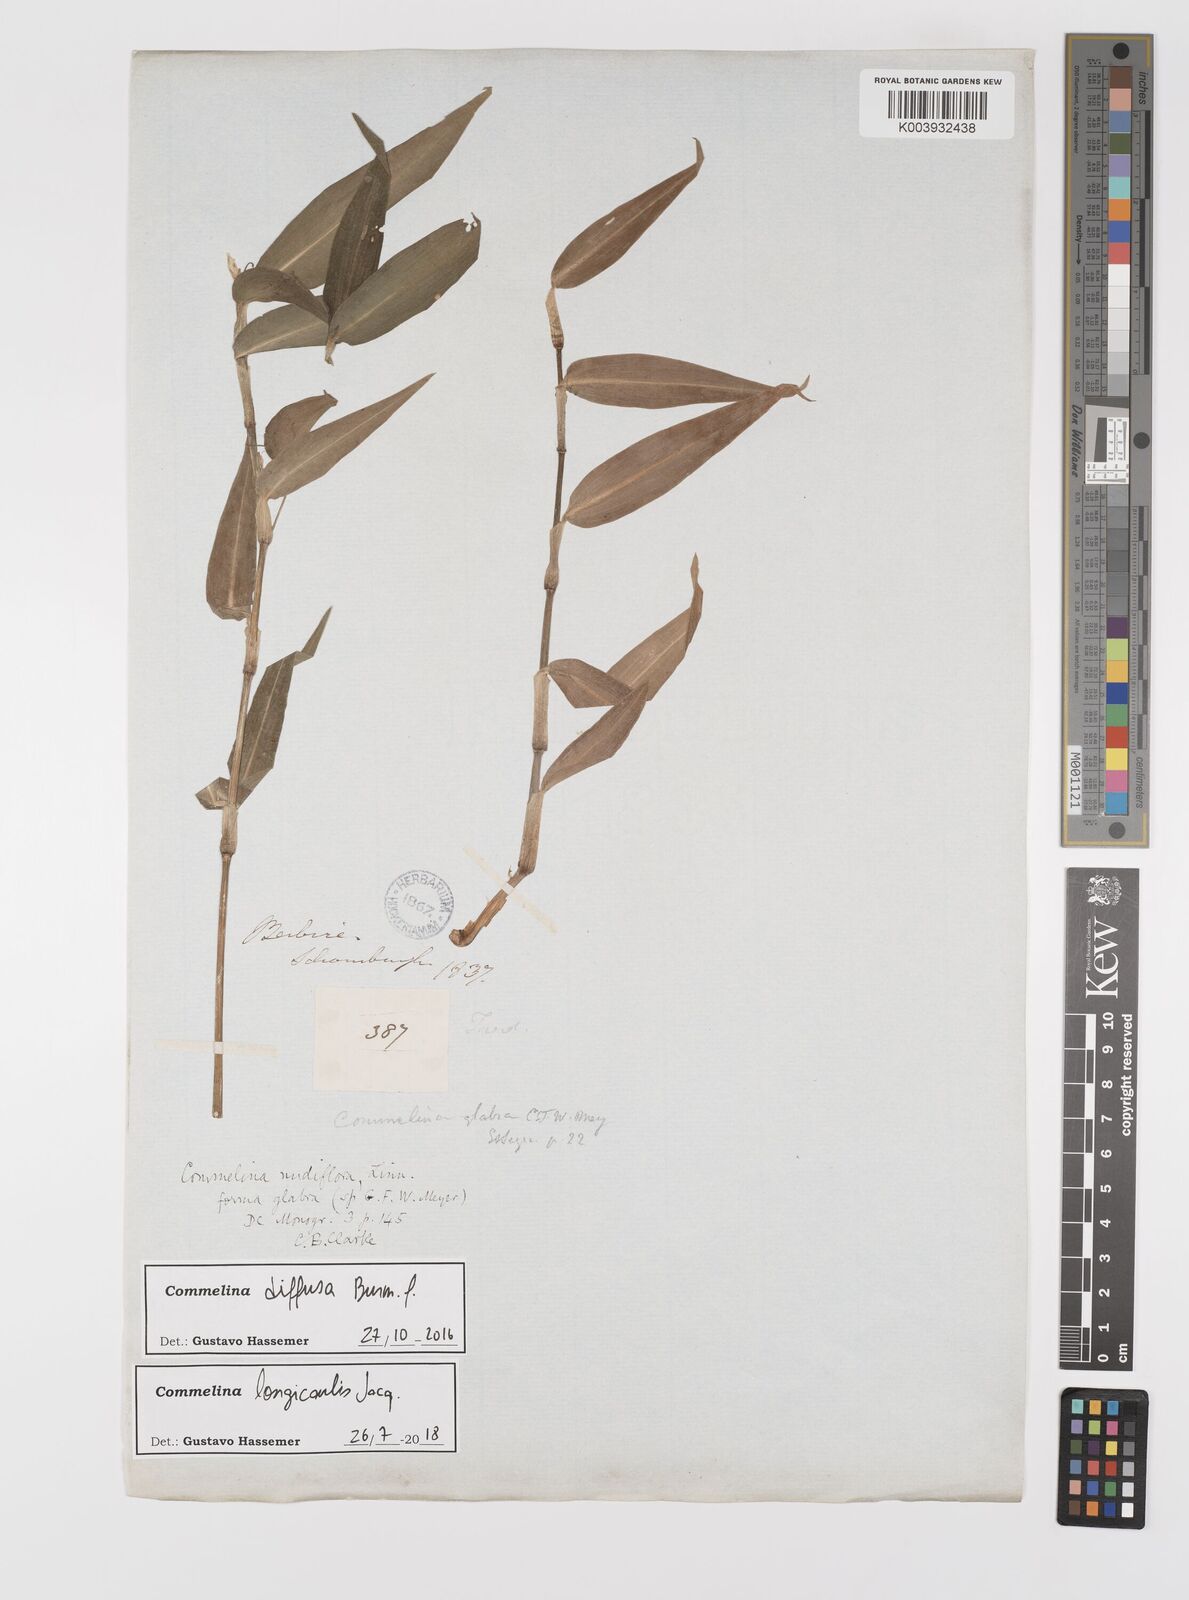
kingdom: Plantae
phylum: Tracheophyta
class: Liliopsida
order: Commelinales
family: Commelinaceae
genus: Commelina
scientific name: Commelina diffusa
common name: Climbing dayflower
